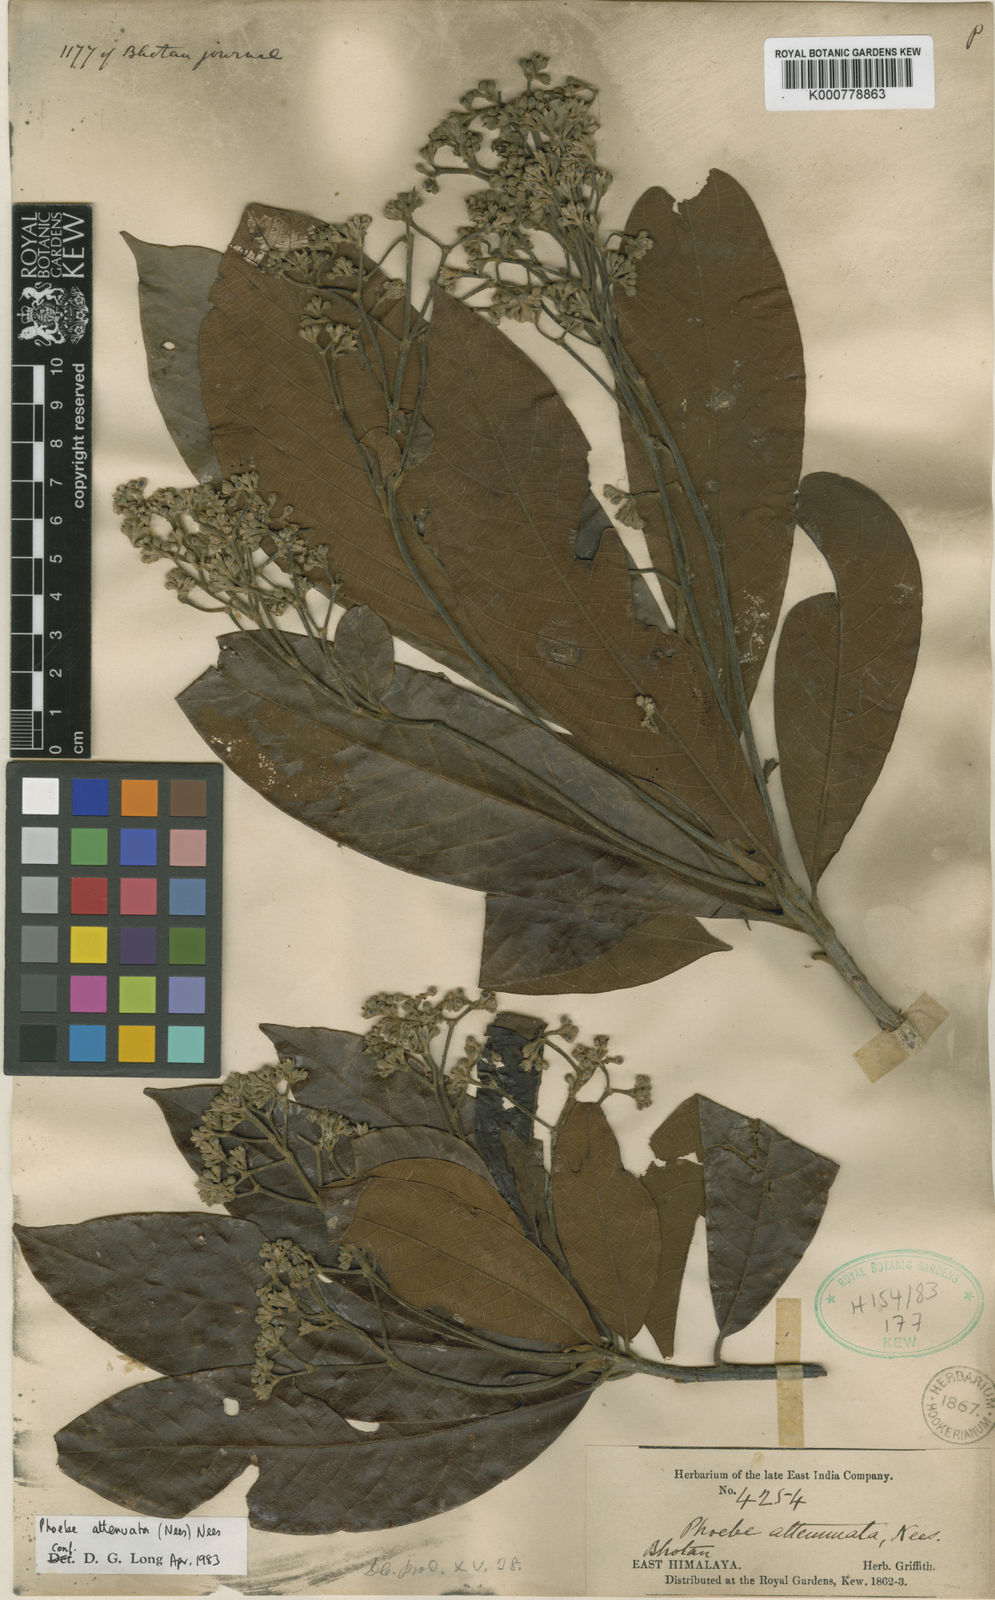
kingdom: Plantae
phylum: Tracheophyta
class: Magnoliopsida
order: Laurales
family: Lauraceae
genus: Phoebe
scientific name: Phoebe attenuata
